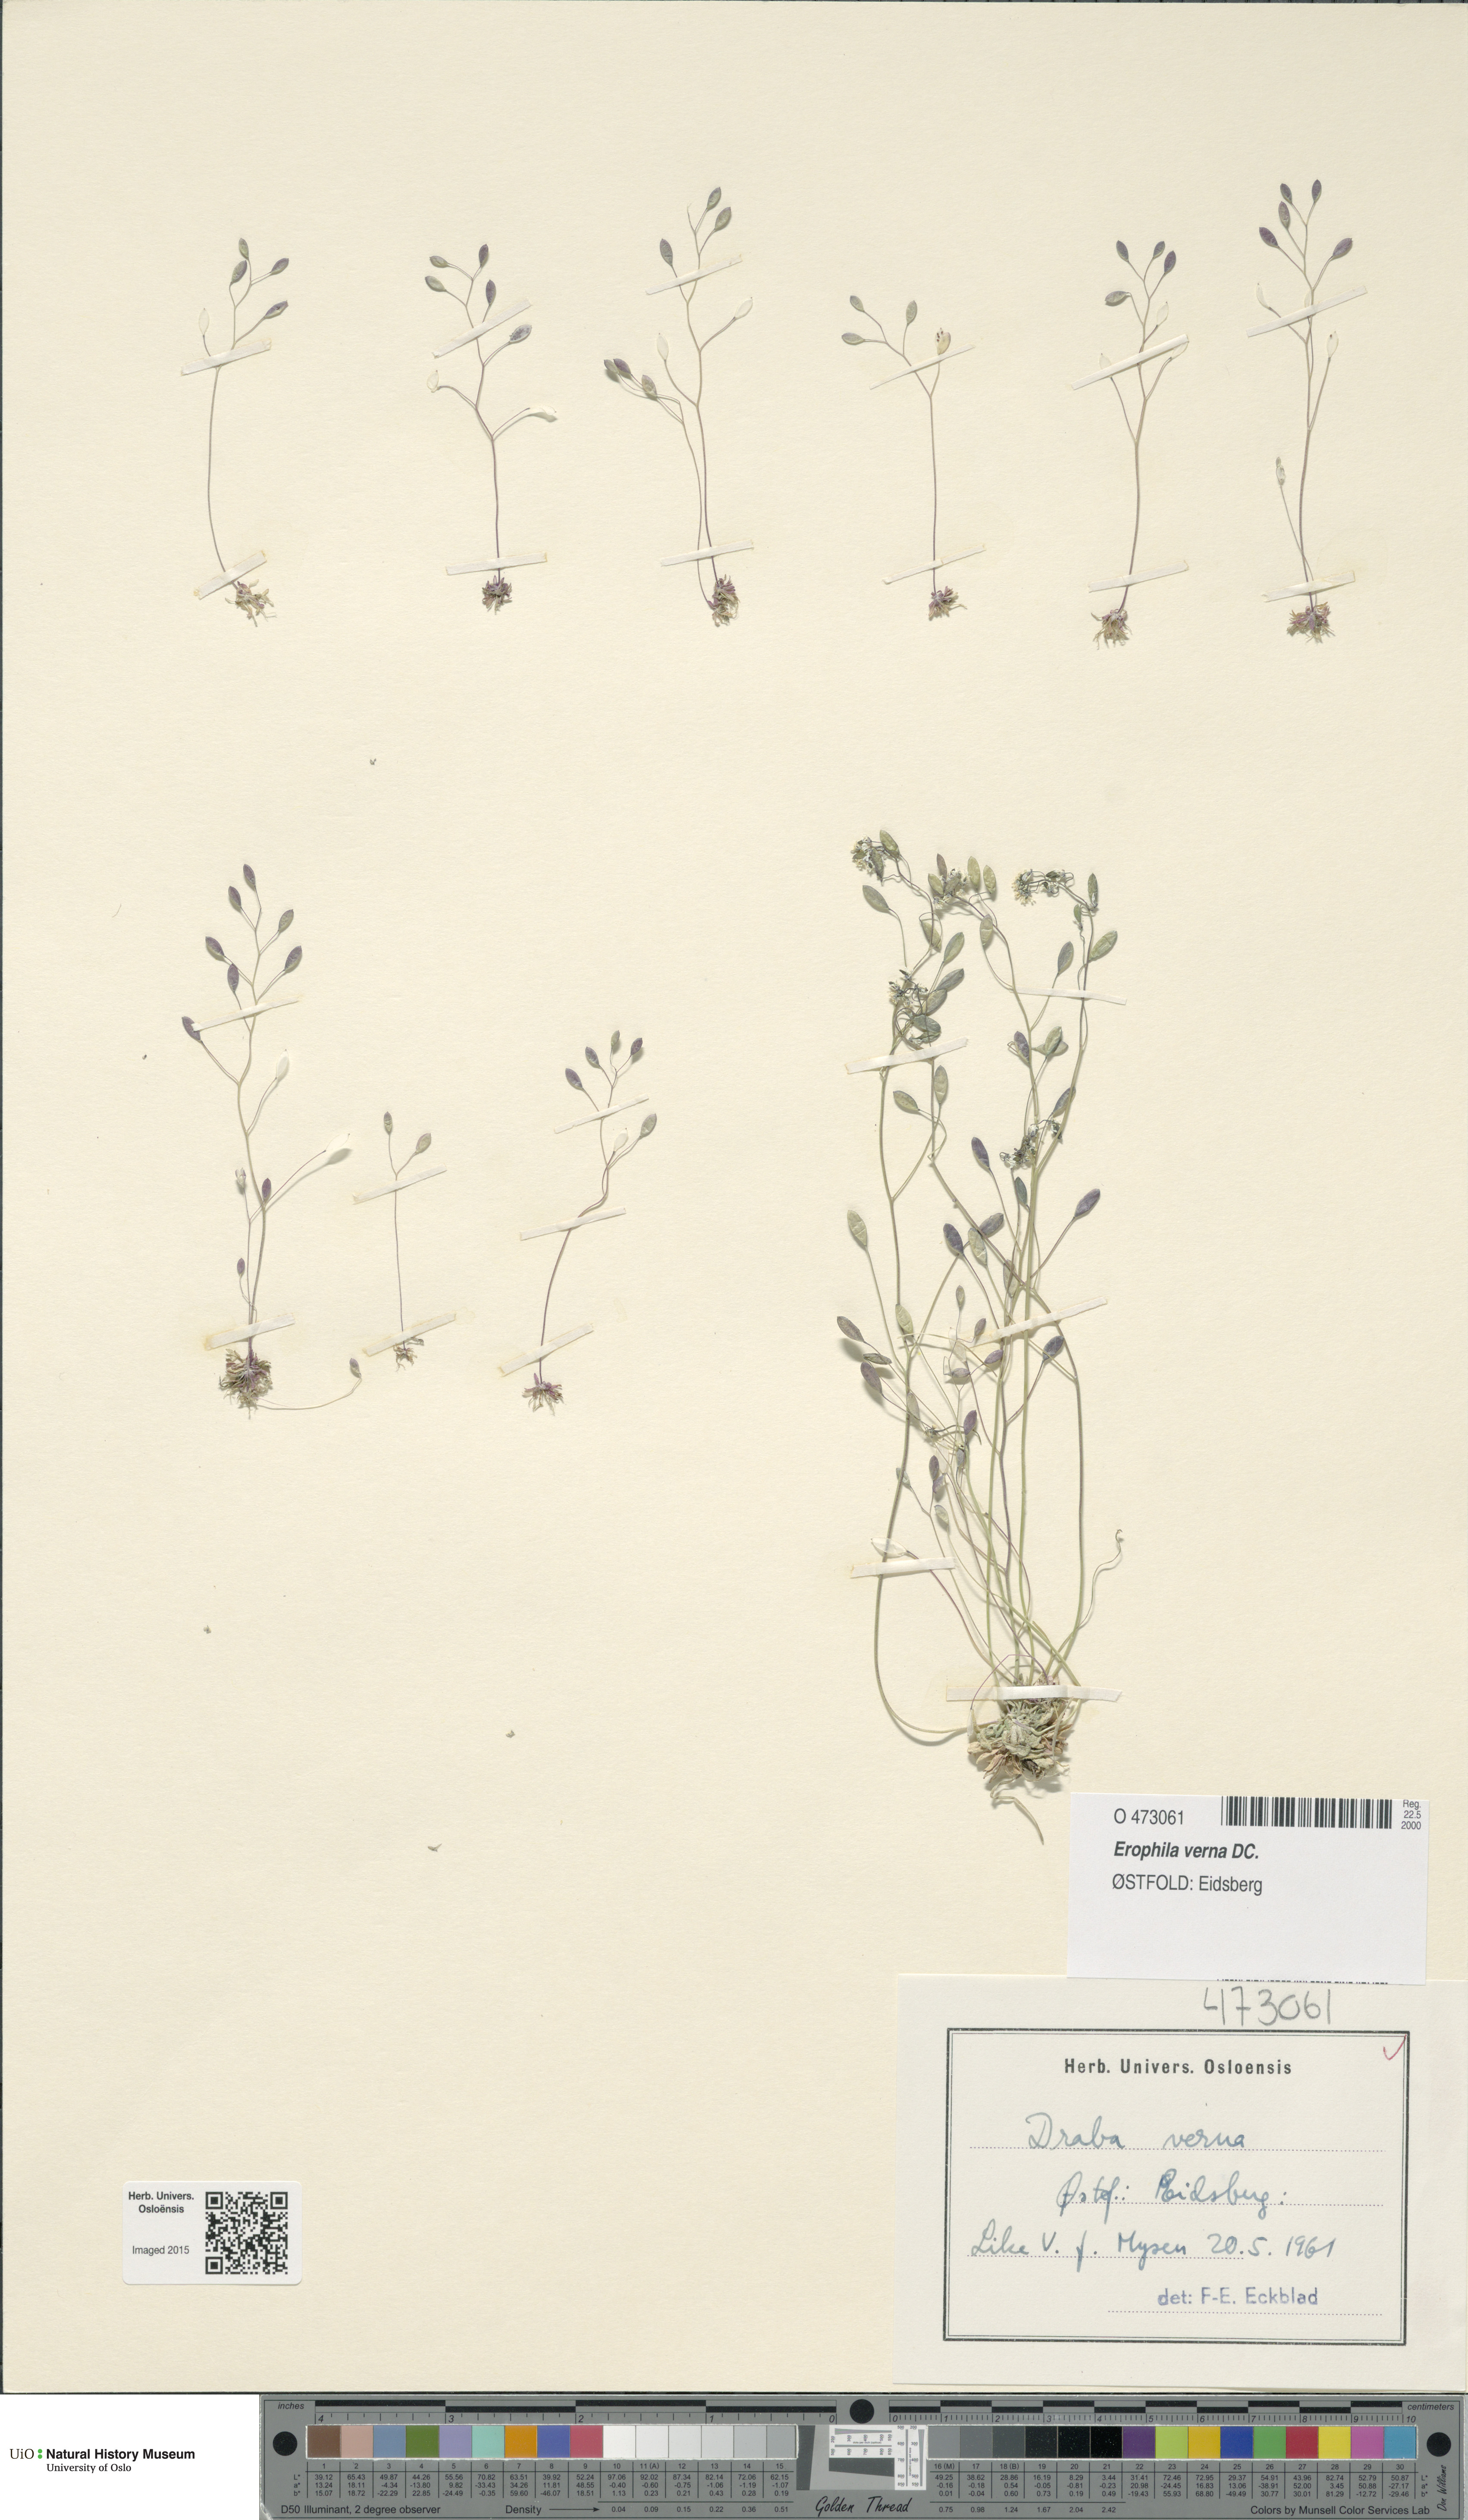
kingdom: Plantae
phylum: Tracheophyta
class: Magnoliopsida
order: Brassicales
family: Brassicaceae
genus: Draba
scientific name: Draba verna
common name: Spring draba
